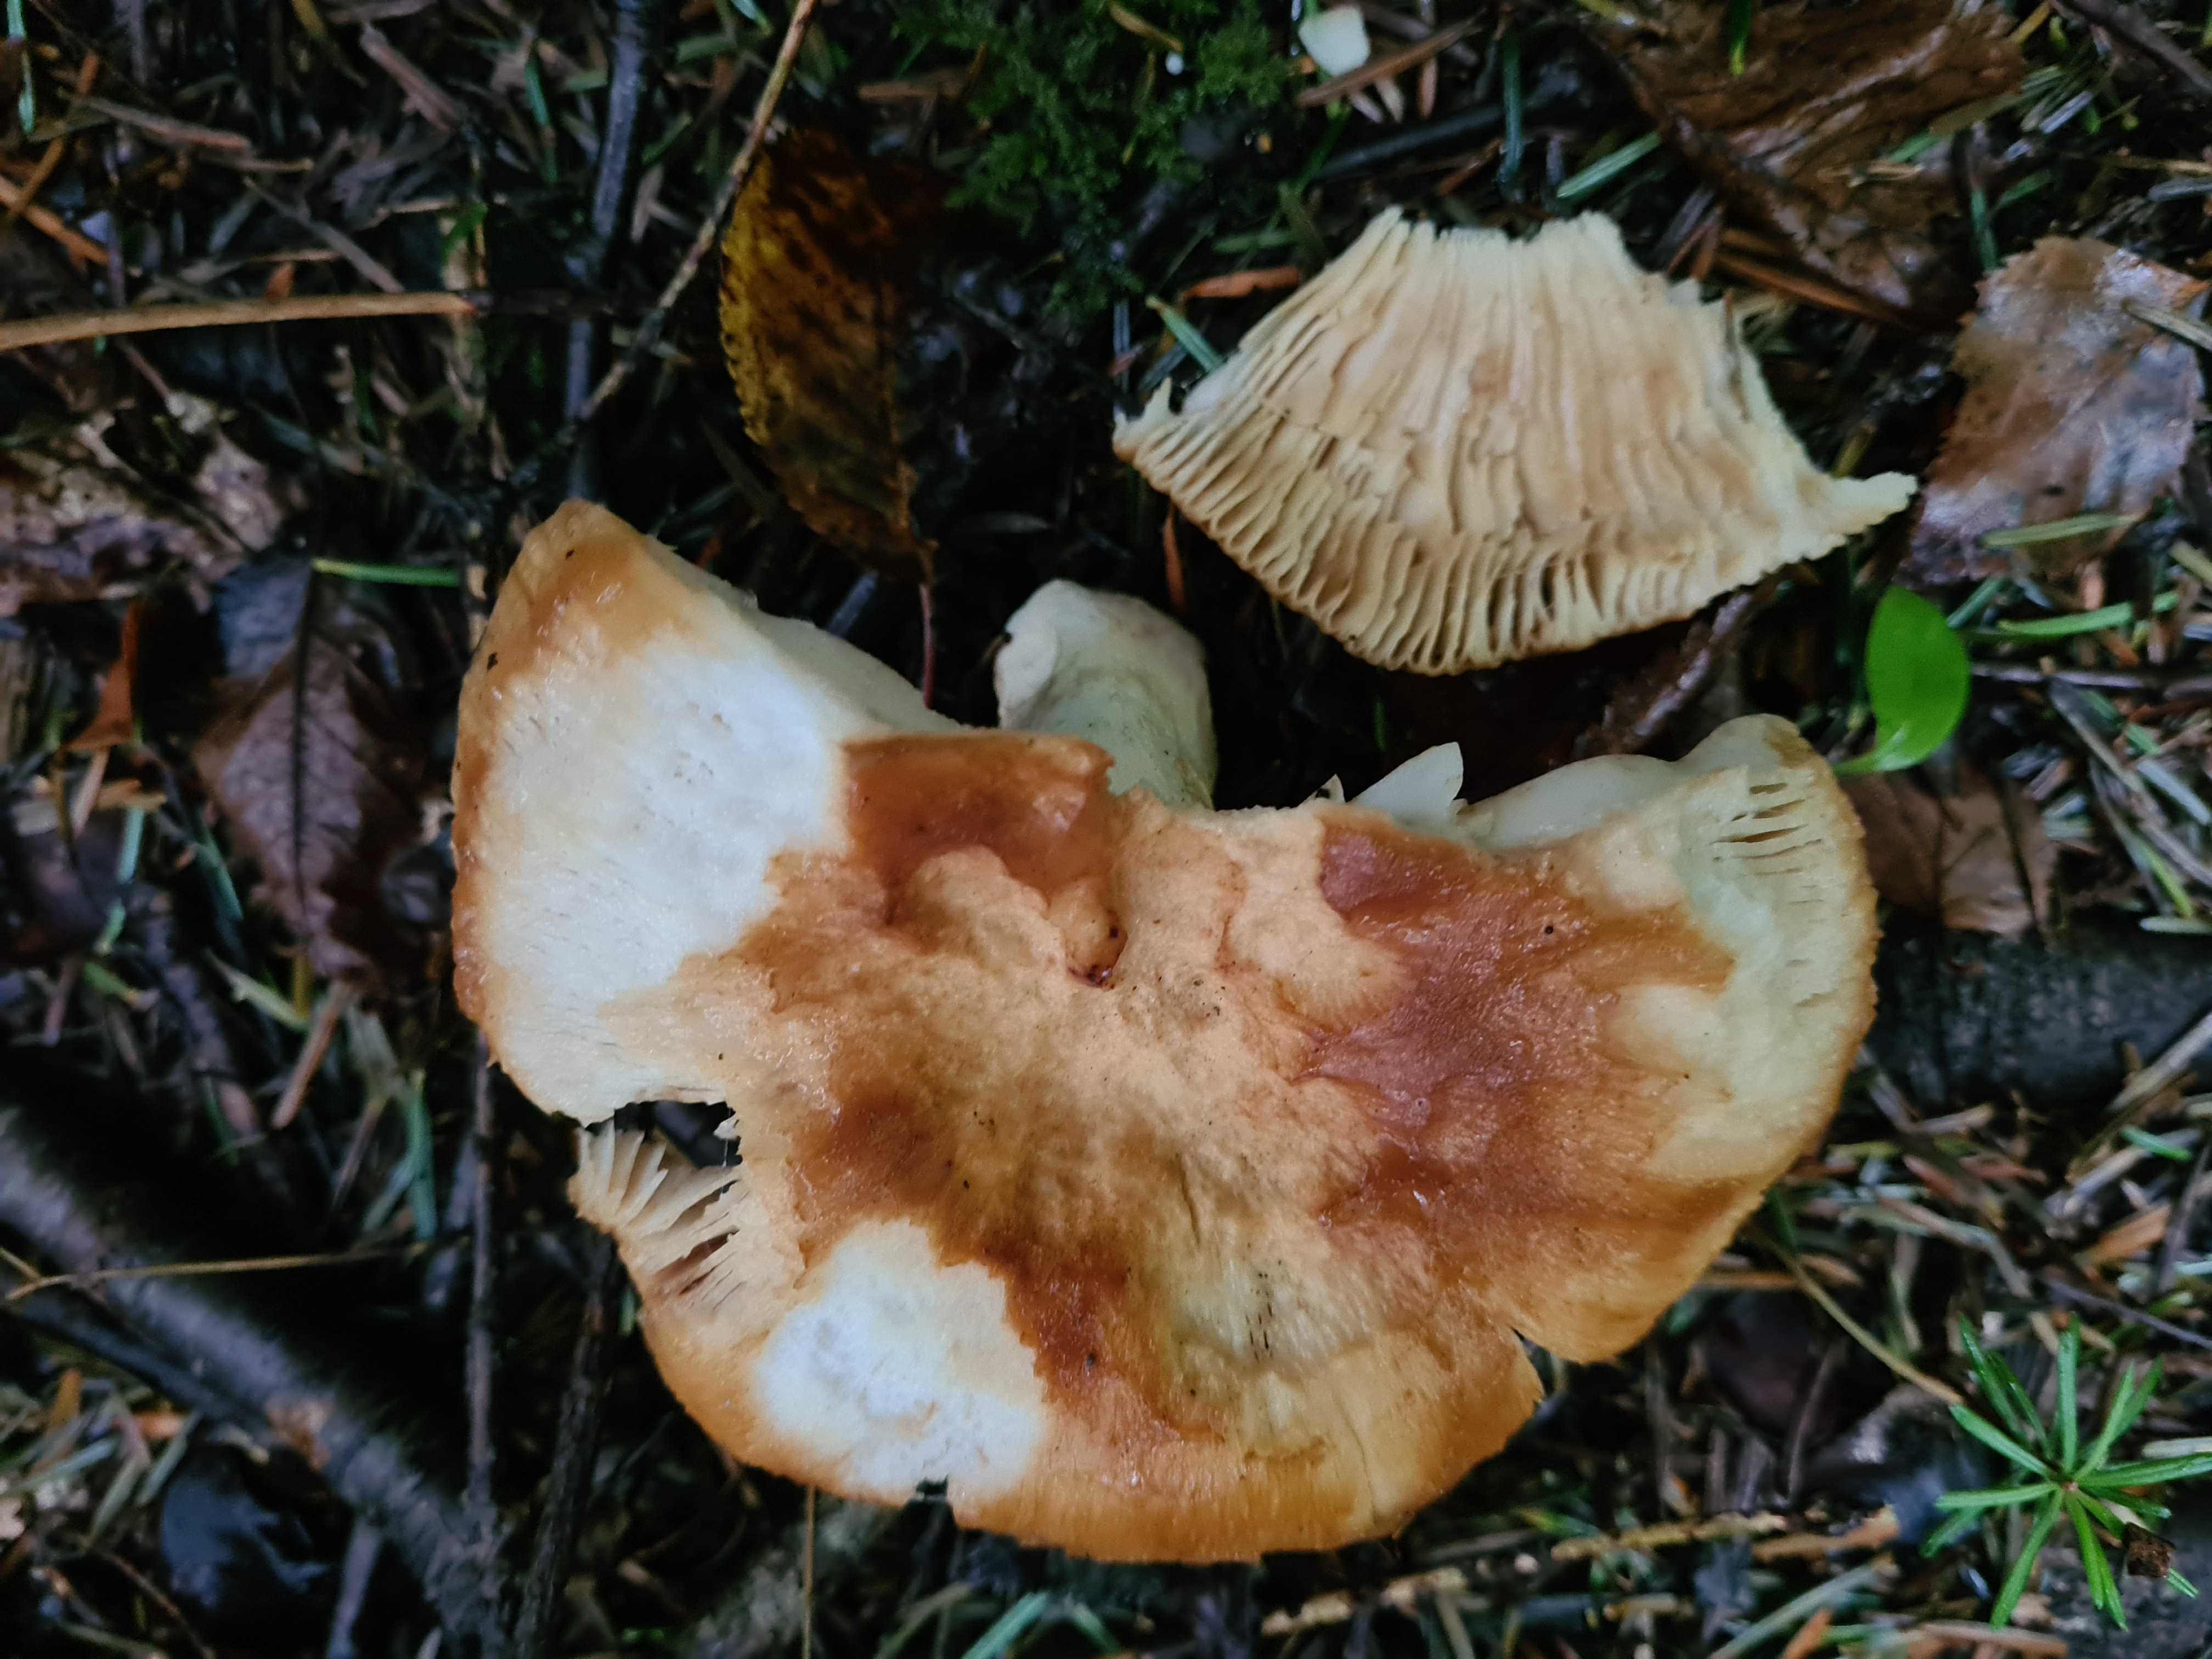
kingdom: Fungi
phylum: Basidiomycota
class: Agaricomycetes
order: Russulales
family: Russulaceae
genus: Russula
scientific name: Russula foetens
